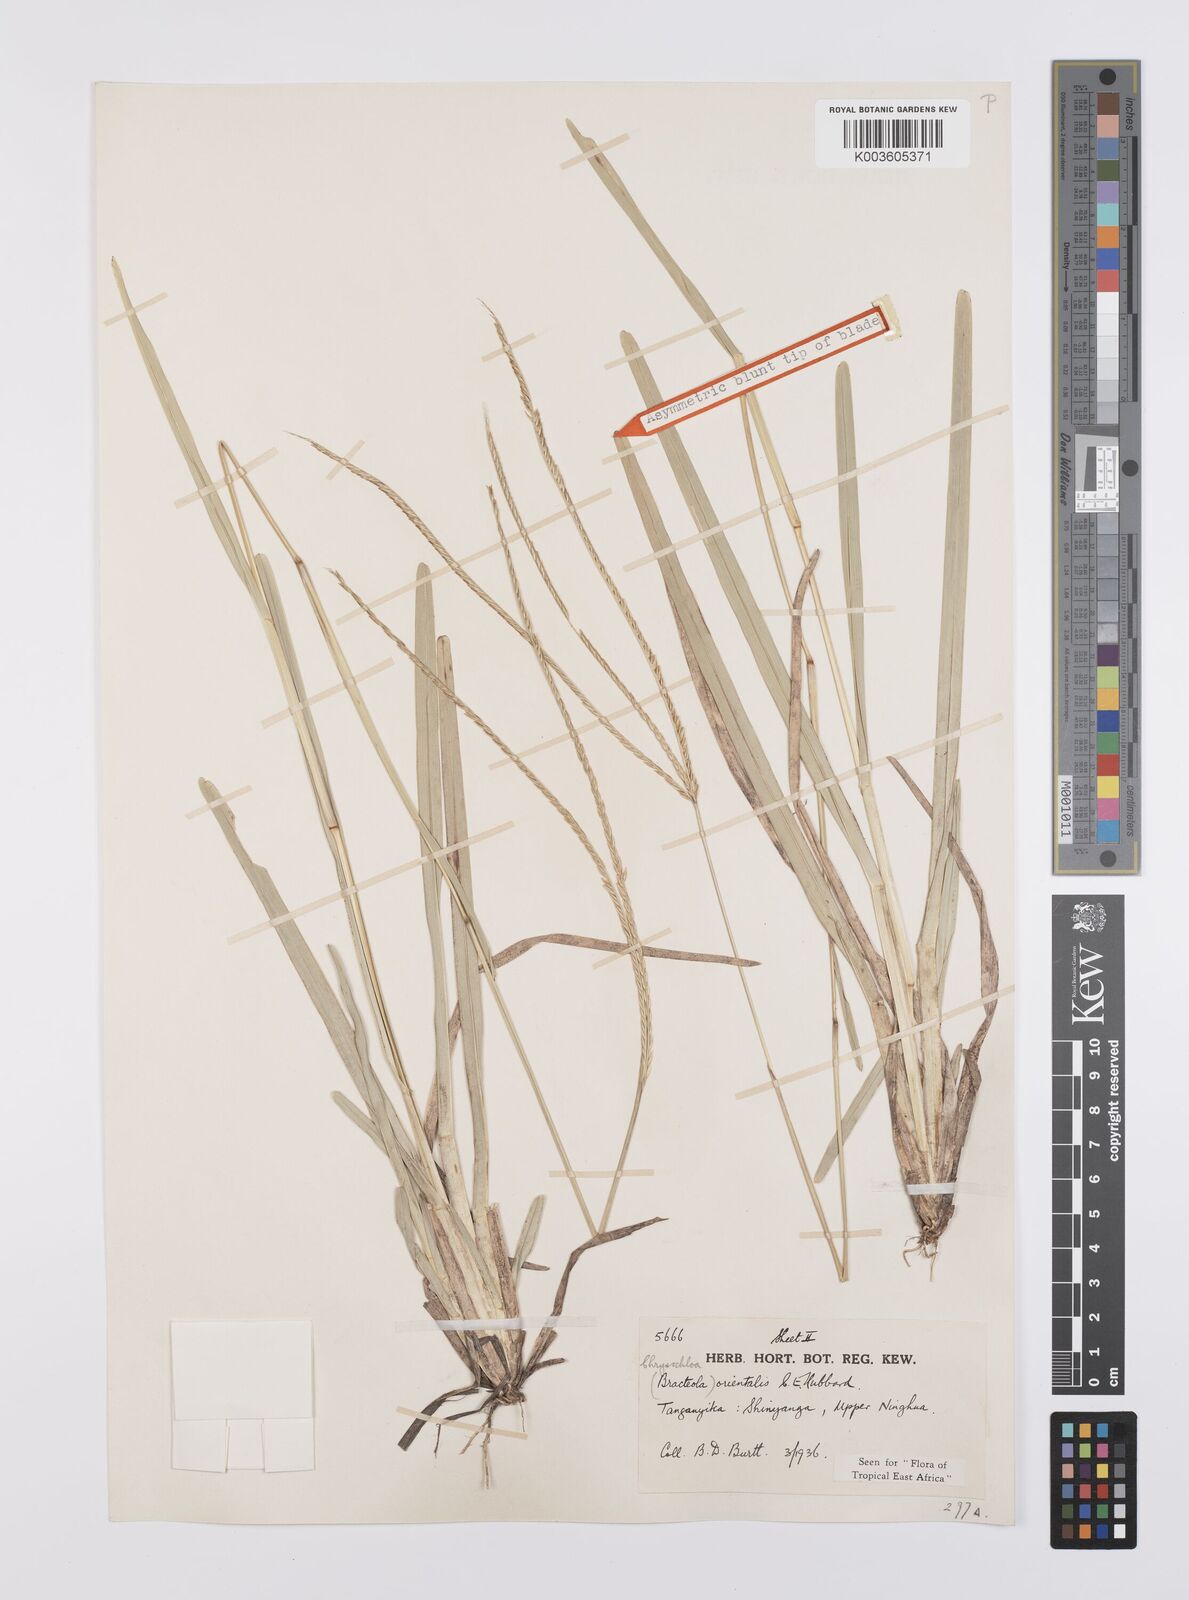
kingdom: Plantae
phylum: Tracheophyta
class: Liliopsida
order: Poales
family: Poaceae
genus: Chrysochloa
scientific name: Chrysochloa orientalis
